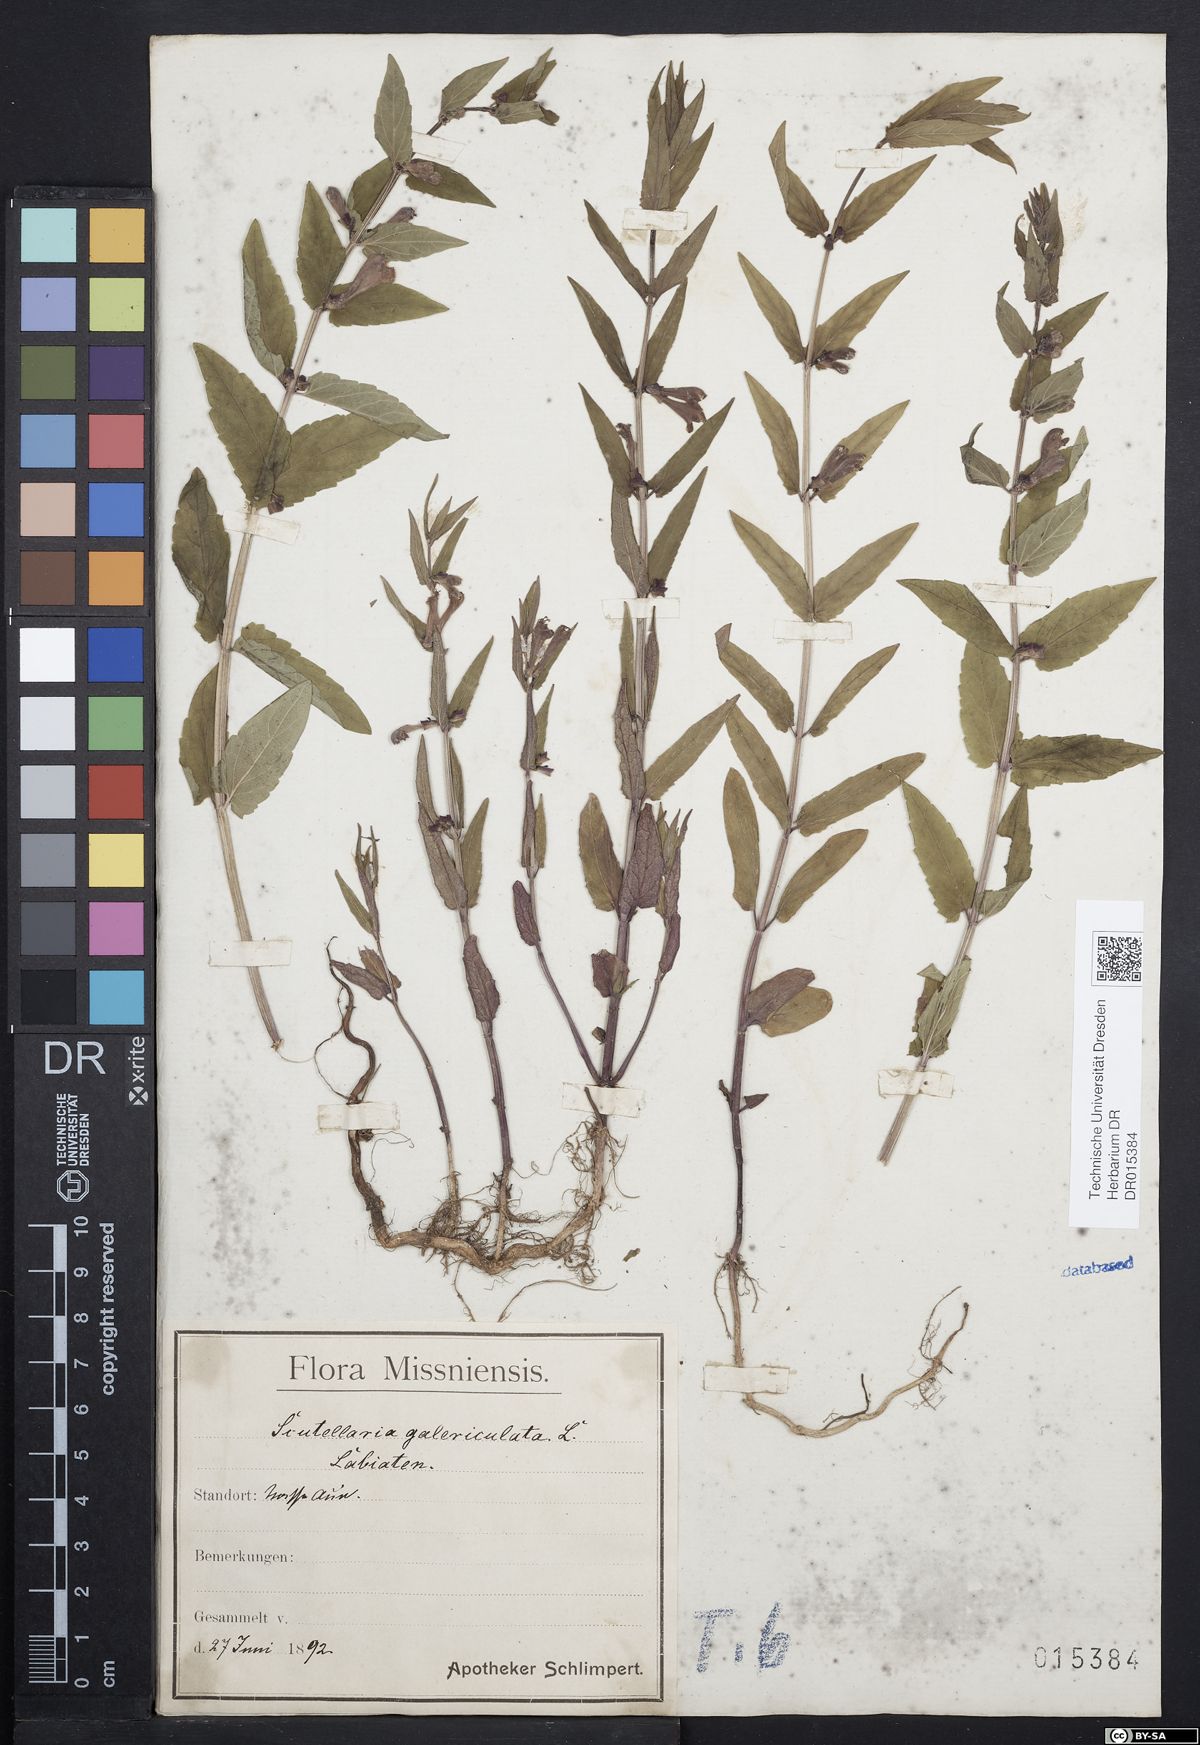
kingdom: Plantae
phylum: Tracheophyta
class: Magnoliopsida
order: Lamiales
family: Lamiaceae
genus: Scutellaria
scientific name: Scutellaria galericulata
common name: Skullcap
